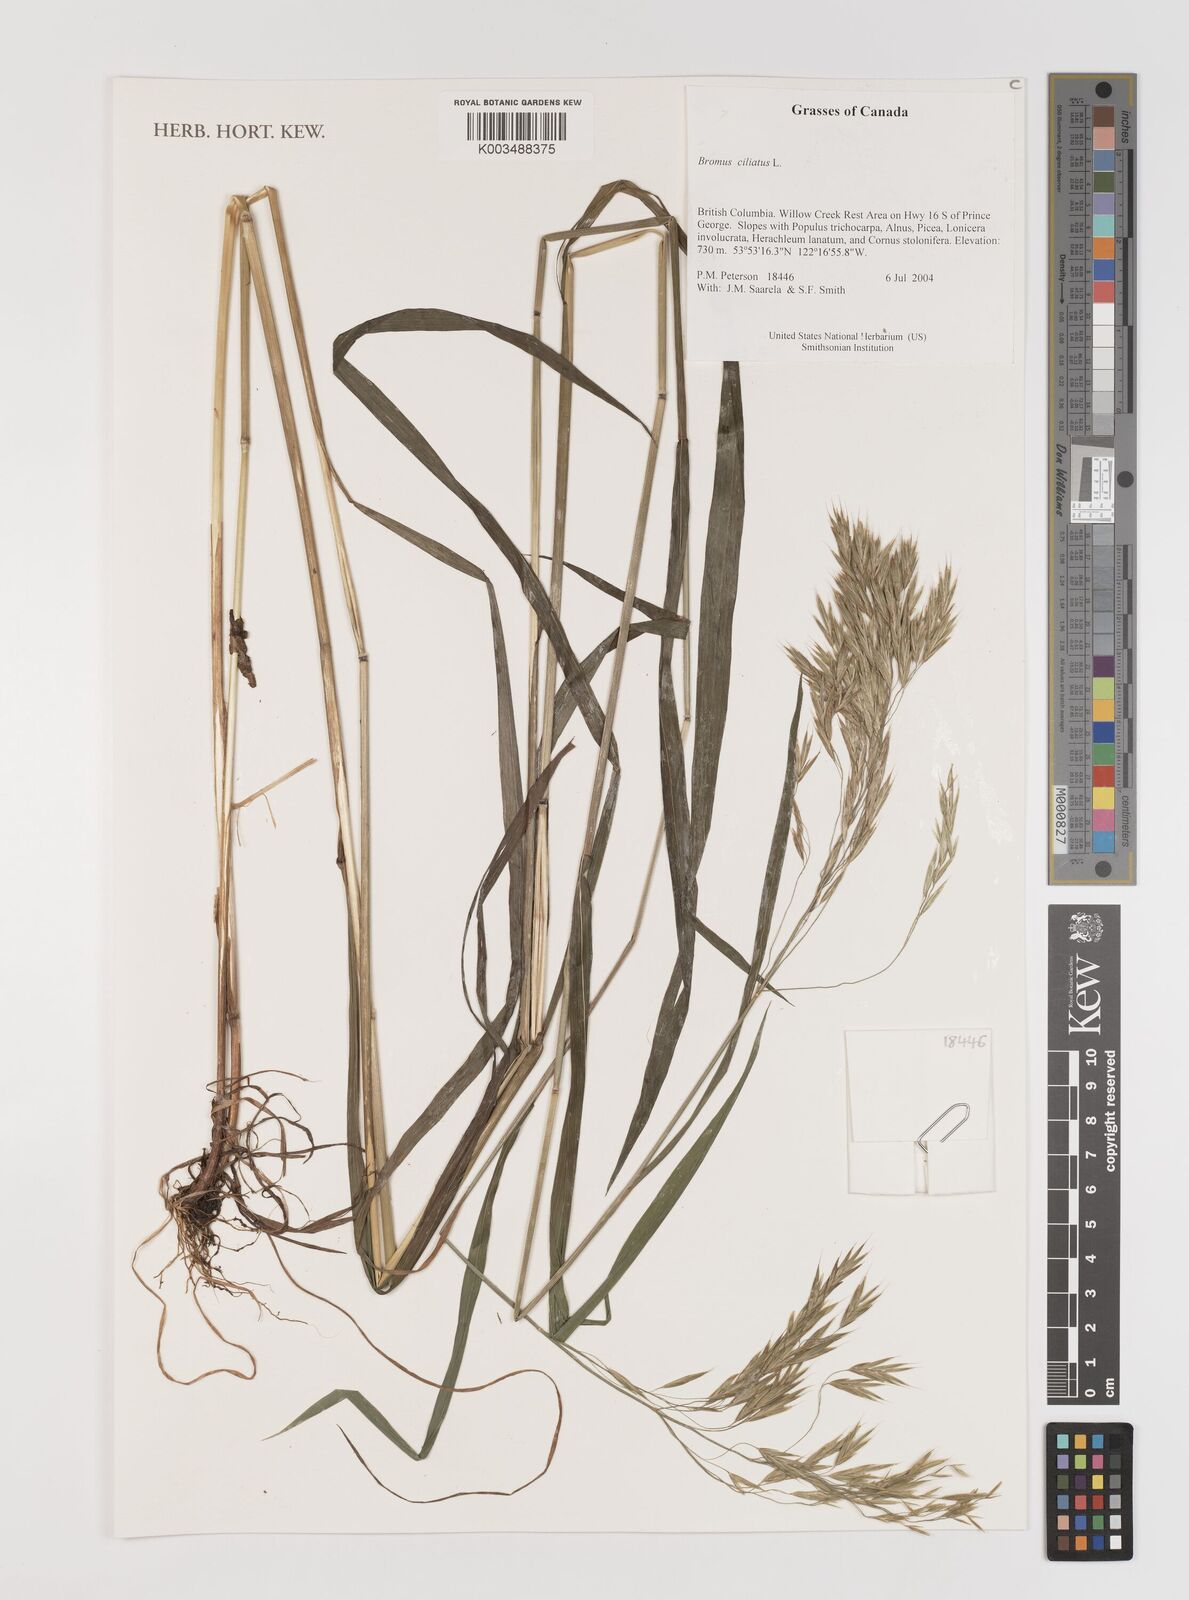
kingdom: Plantae
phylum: Tracheophyta
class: Liliopsida
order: Poales
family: Poaceae
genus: Bromus
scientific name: Bromus ciliatus
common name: Fringe brome
